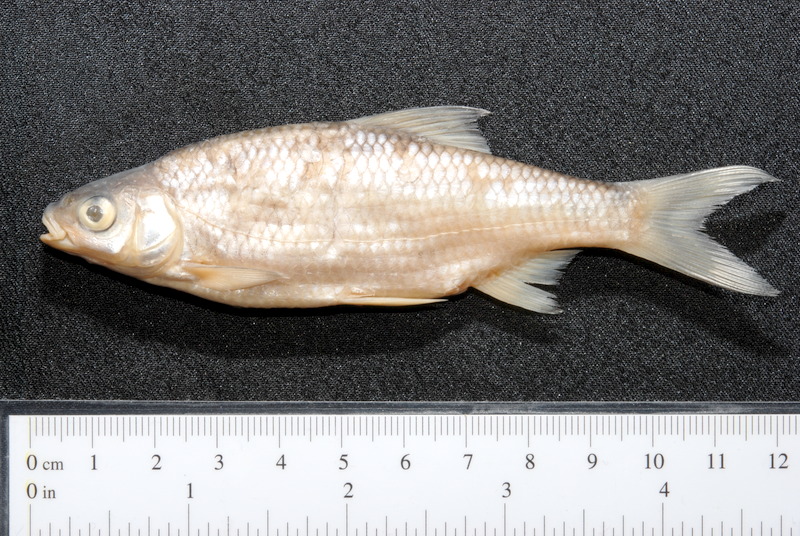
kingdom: Animalia
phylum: Chordata
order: Cypriniformes
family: Cyprinidae
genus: Rutilus
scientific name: Rutilus rutilus
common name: Roach
